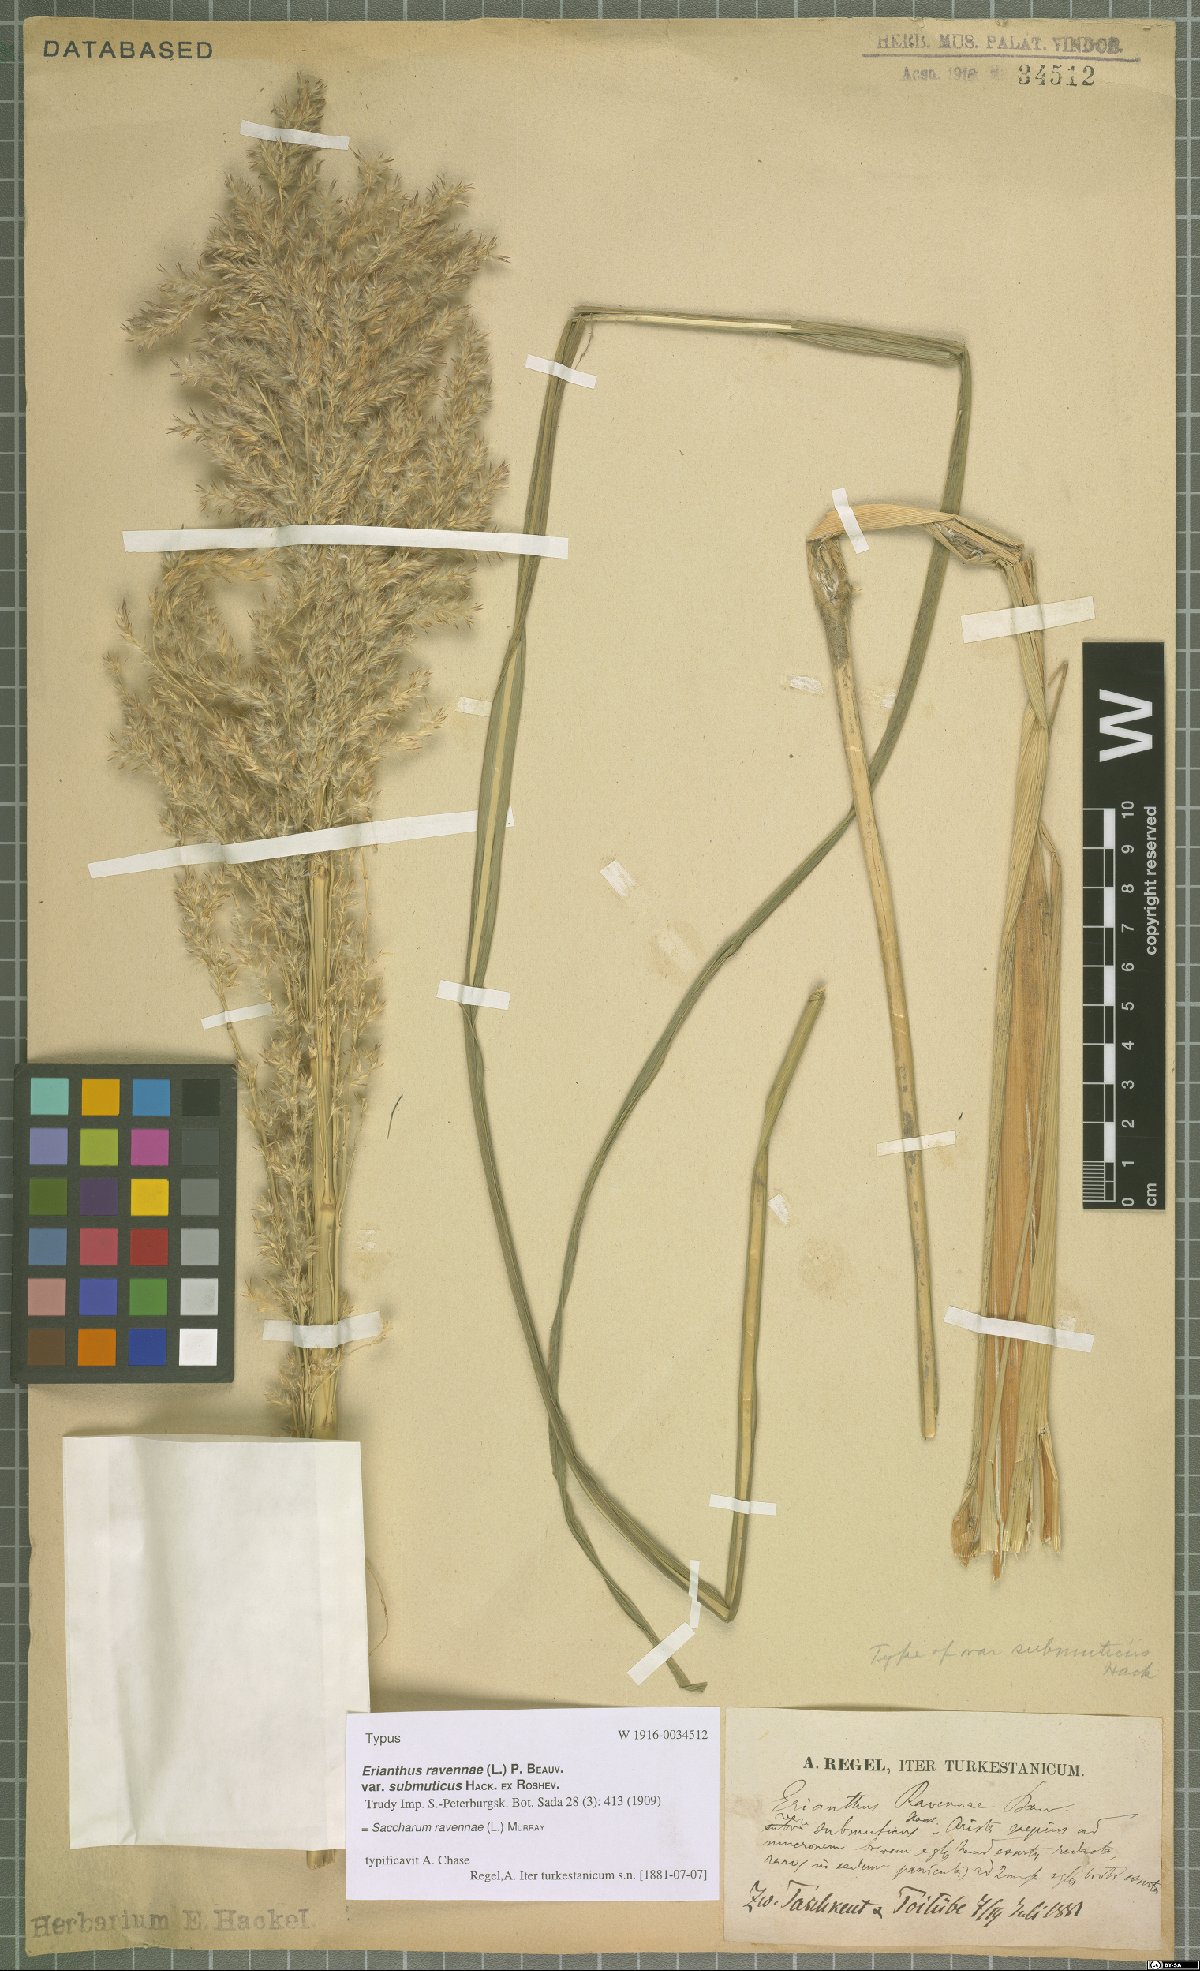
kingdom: Plantae
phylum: Tracheophyta
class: Liliopsida
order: Poales
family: Poaceae
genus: Tripidium
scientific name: Tripidium ravennae
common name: Ravenna grass
